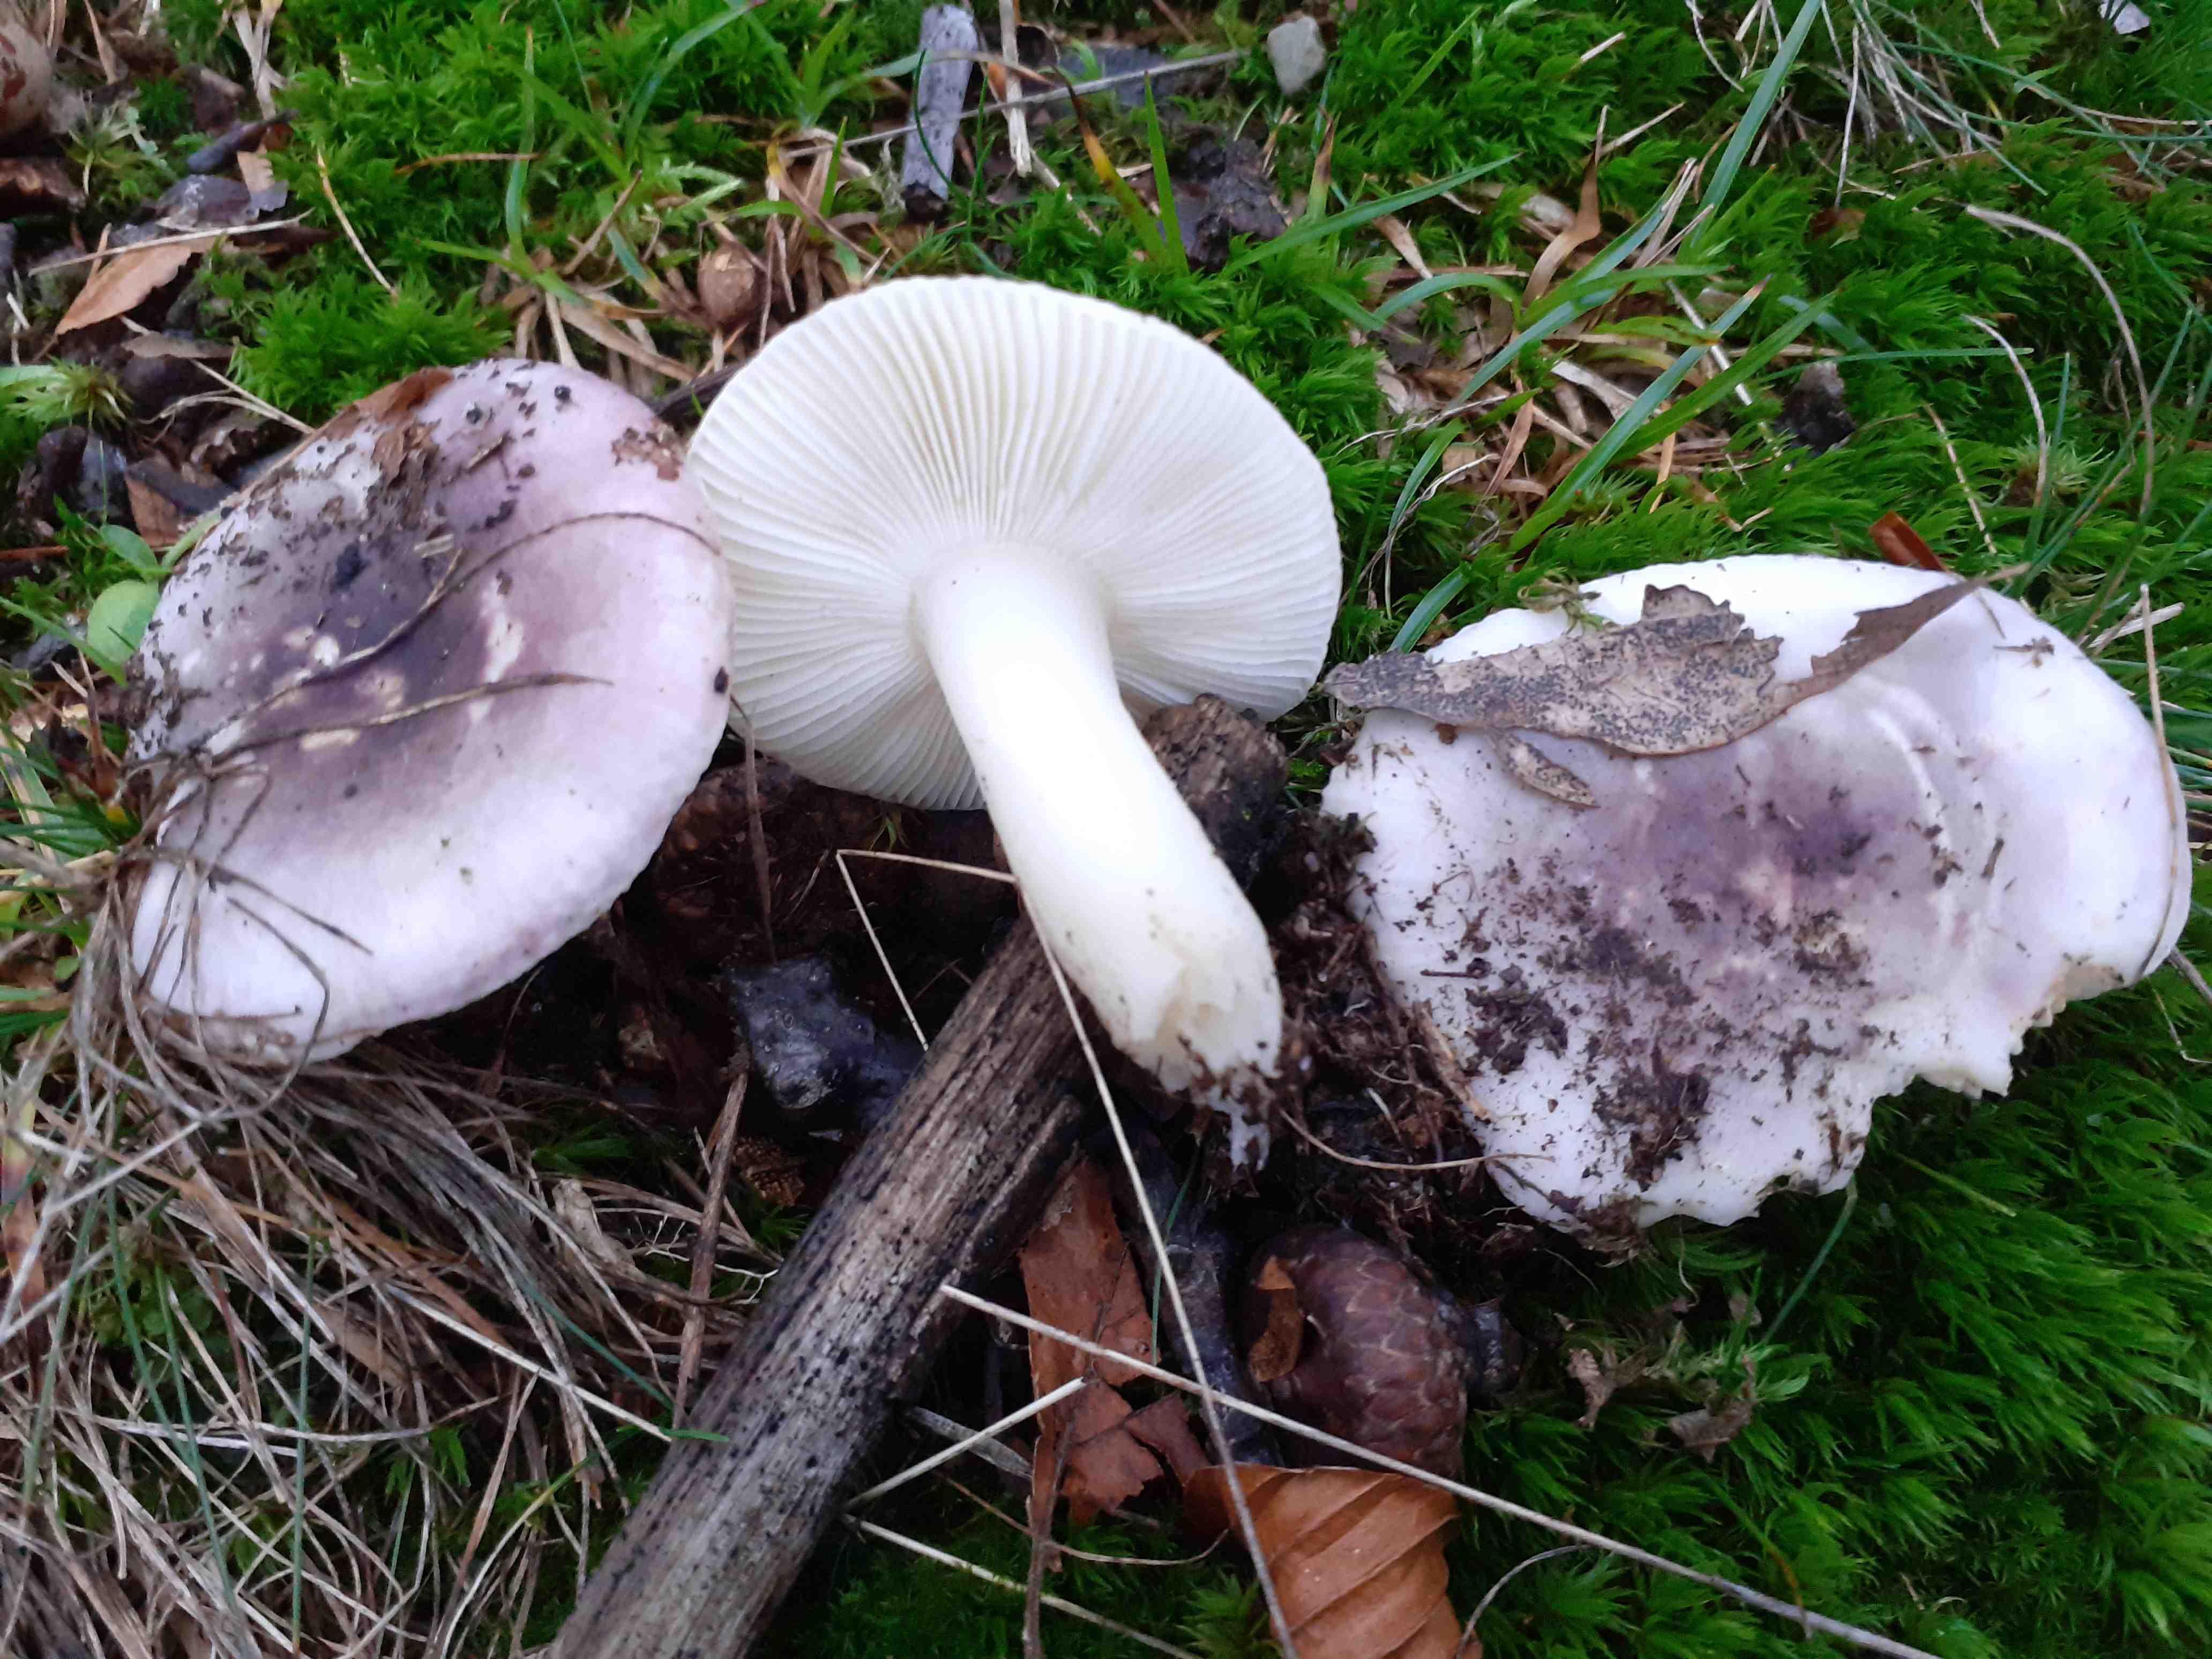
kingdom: Fungi
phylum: Basidiomycota
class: Agaricomycetes
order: Russulales
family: Russulaceae
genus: Russula
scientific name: Russula fragilis
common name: savbladet skørhat
